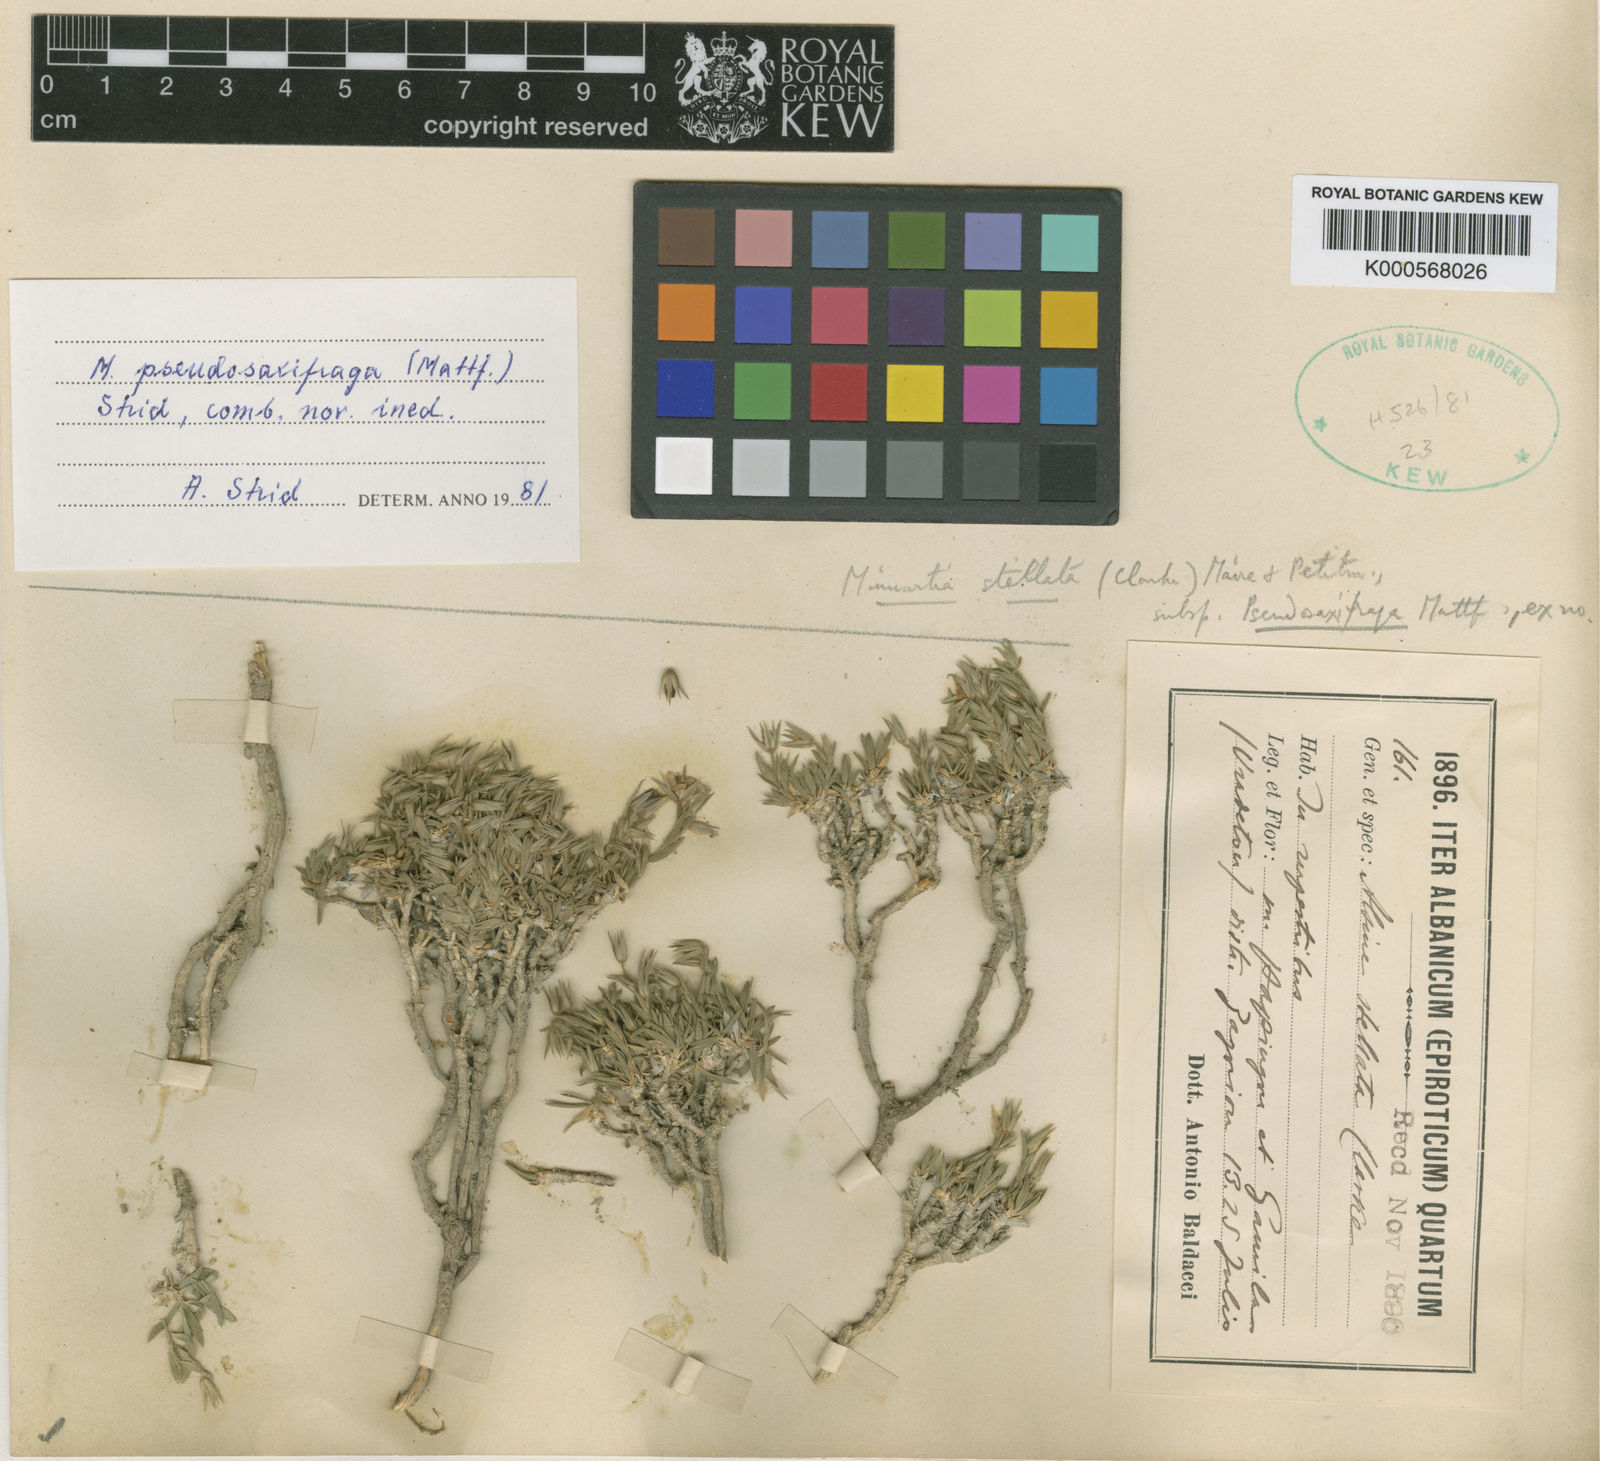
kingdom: Plantae
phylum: Tracheophyta
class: Magnoliopsida
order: Caryophyllales
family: Caryophyllaceae
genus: Minuartia
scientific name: Minuartia
